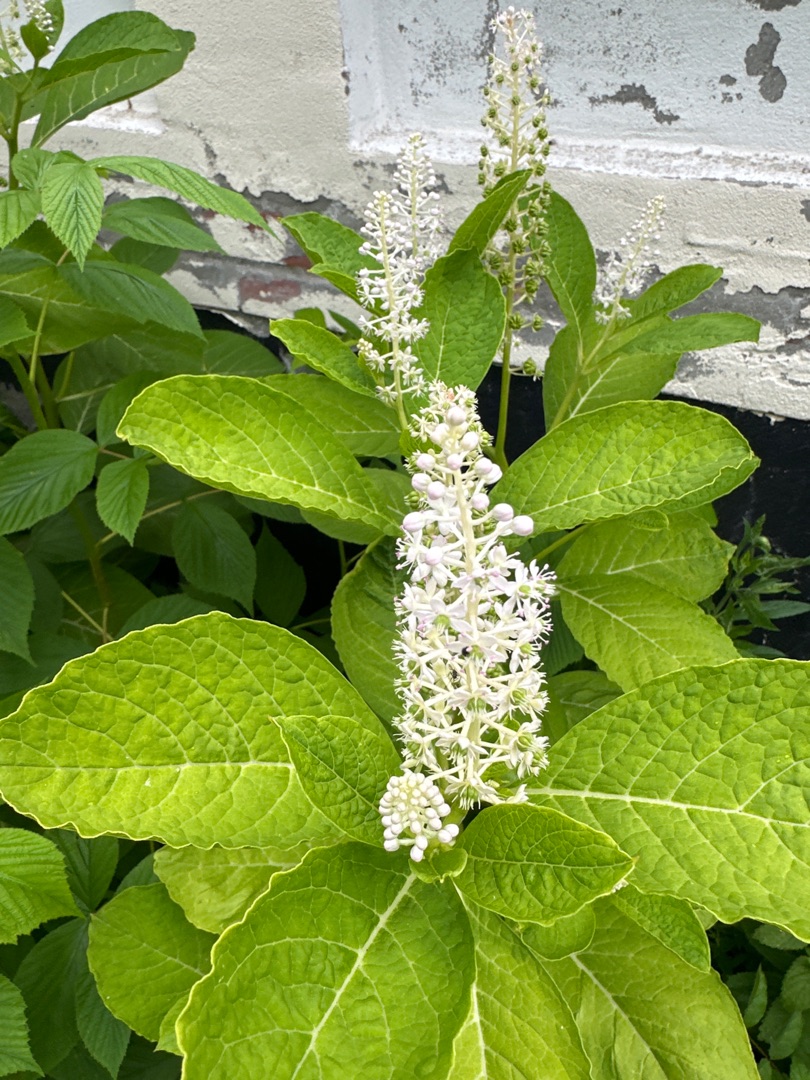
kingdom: Plantae
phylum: Tracheophyta
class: Magnoliopsida
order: Rosales
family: Rosaceae
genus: Rubus
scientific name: Rubus idaeus
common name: Hindbær
